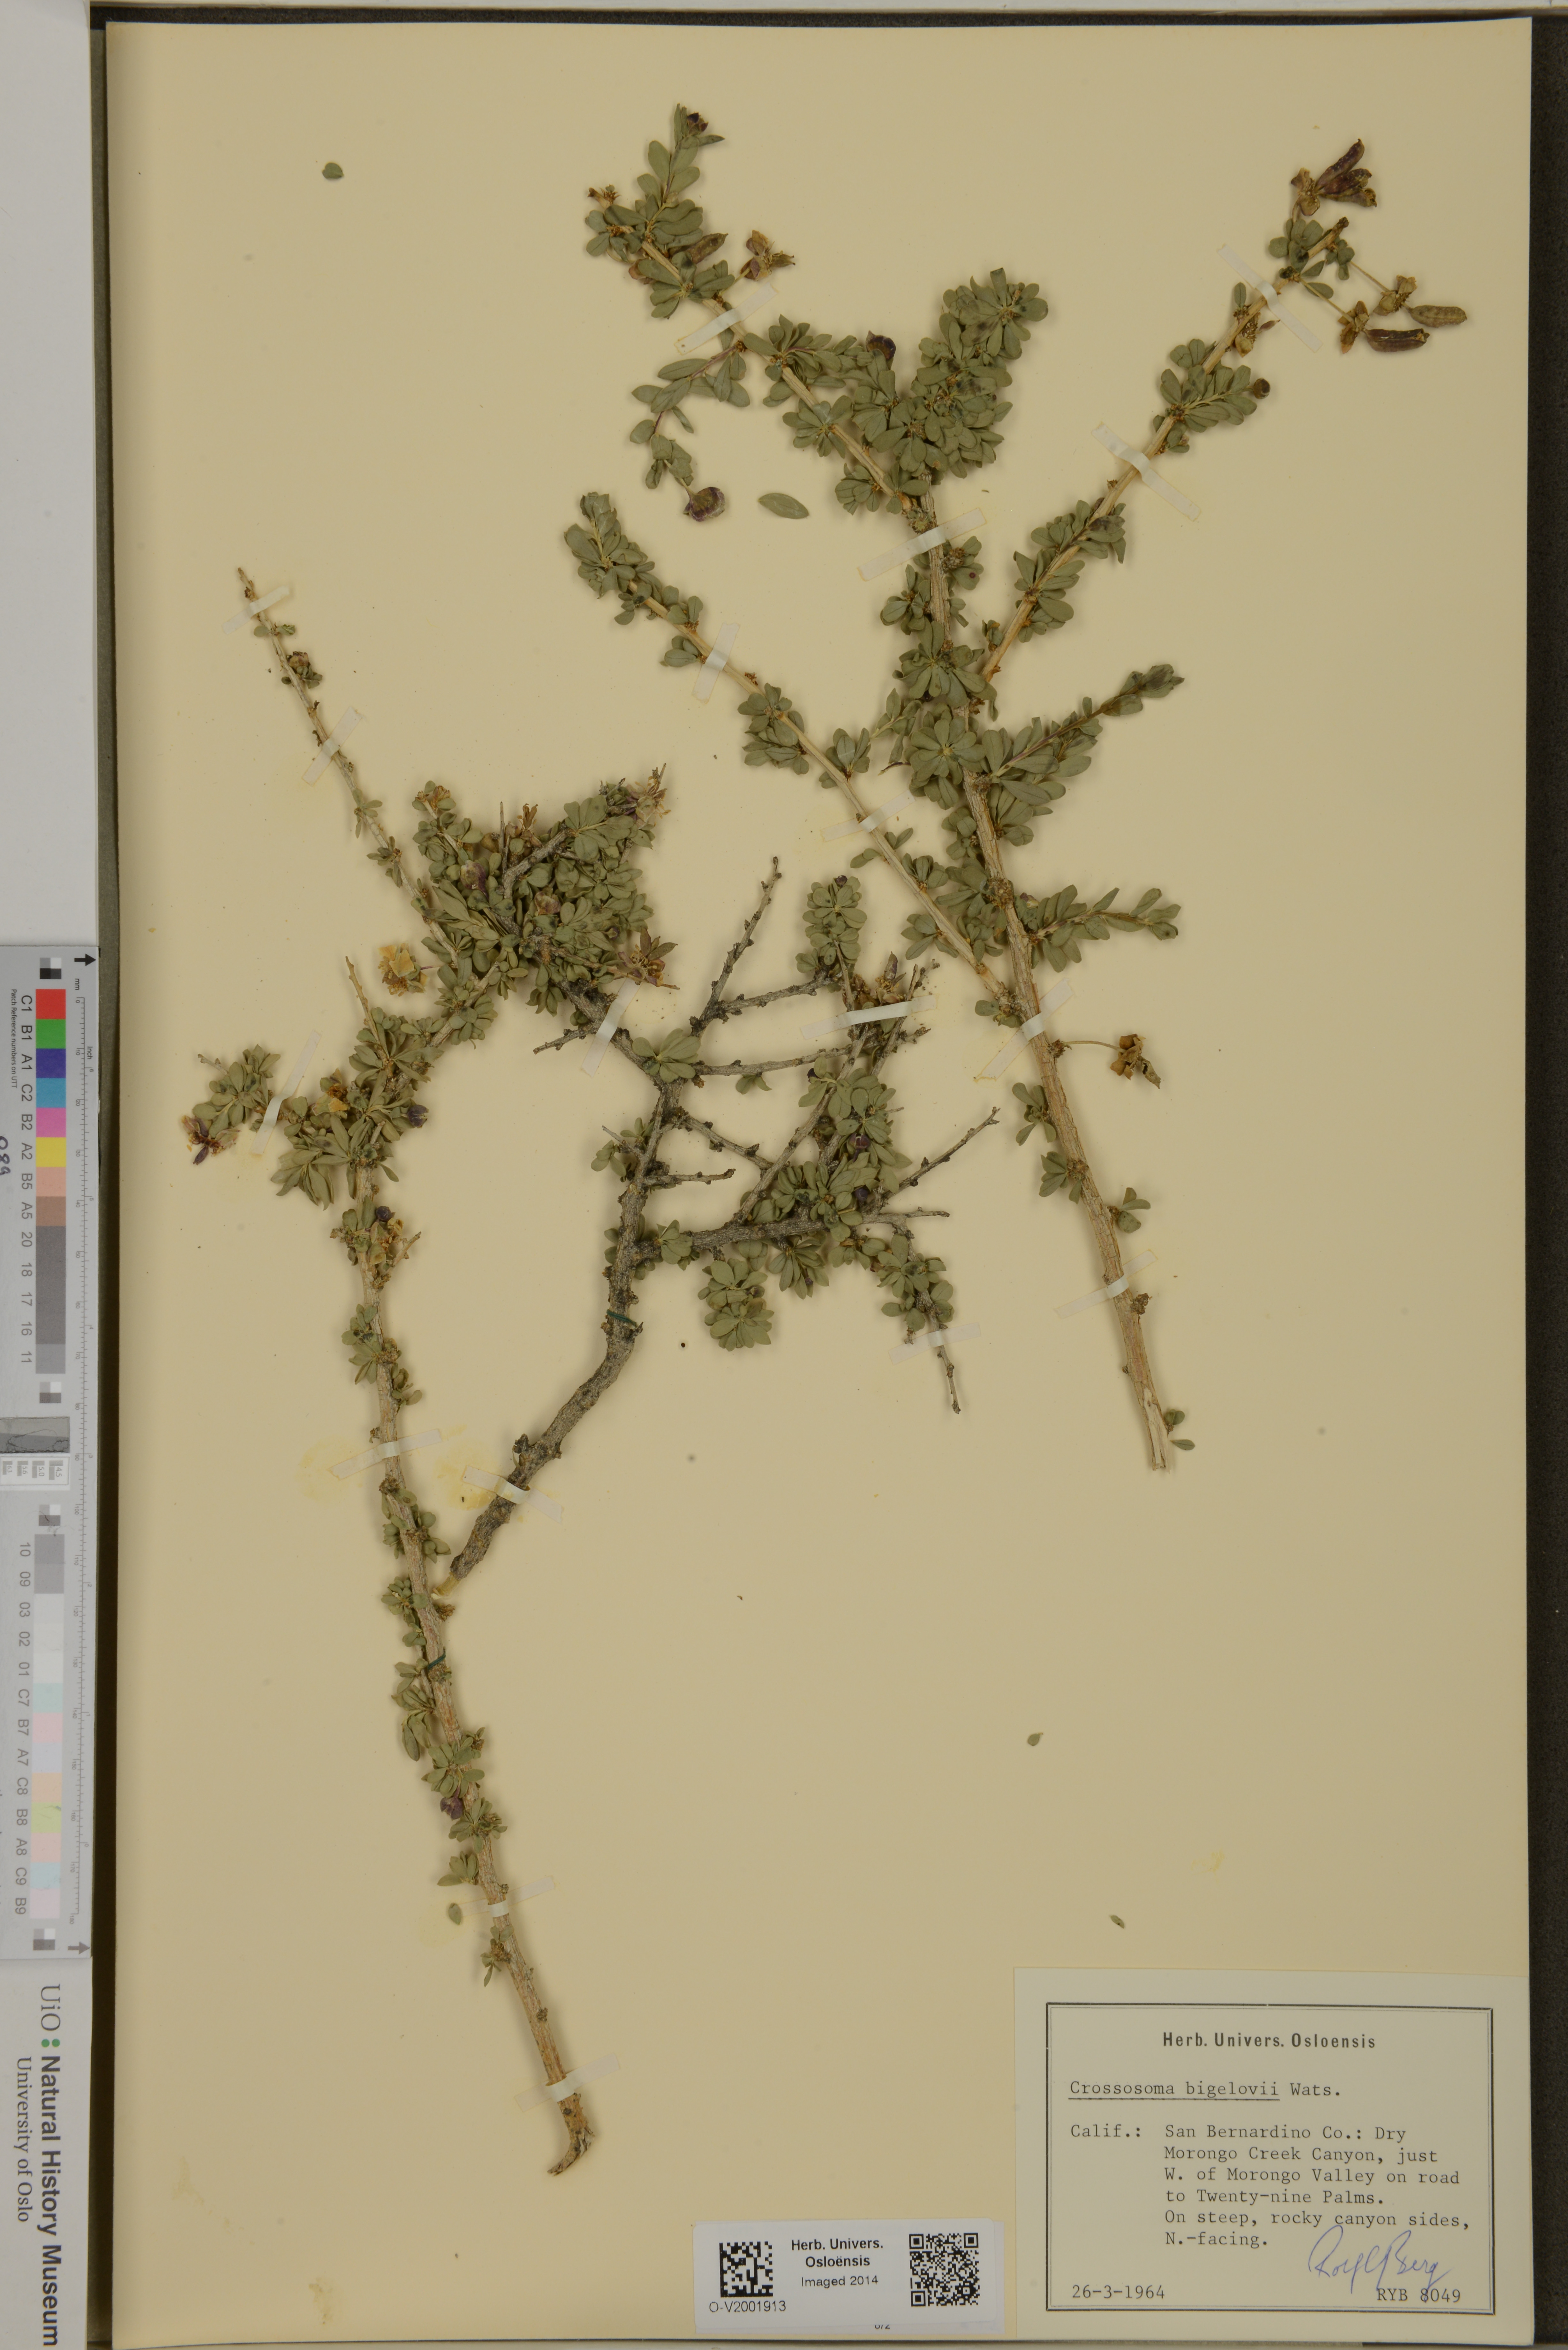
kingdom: Plantae
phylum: Tracheophyta
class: Magnoliopsida
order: Crossosomatales
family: Crossosomataceae
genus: Crossosoma
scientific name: Crossosoma bigelovii
